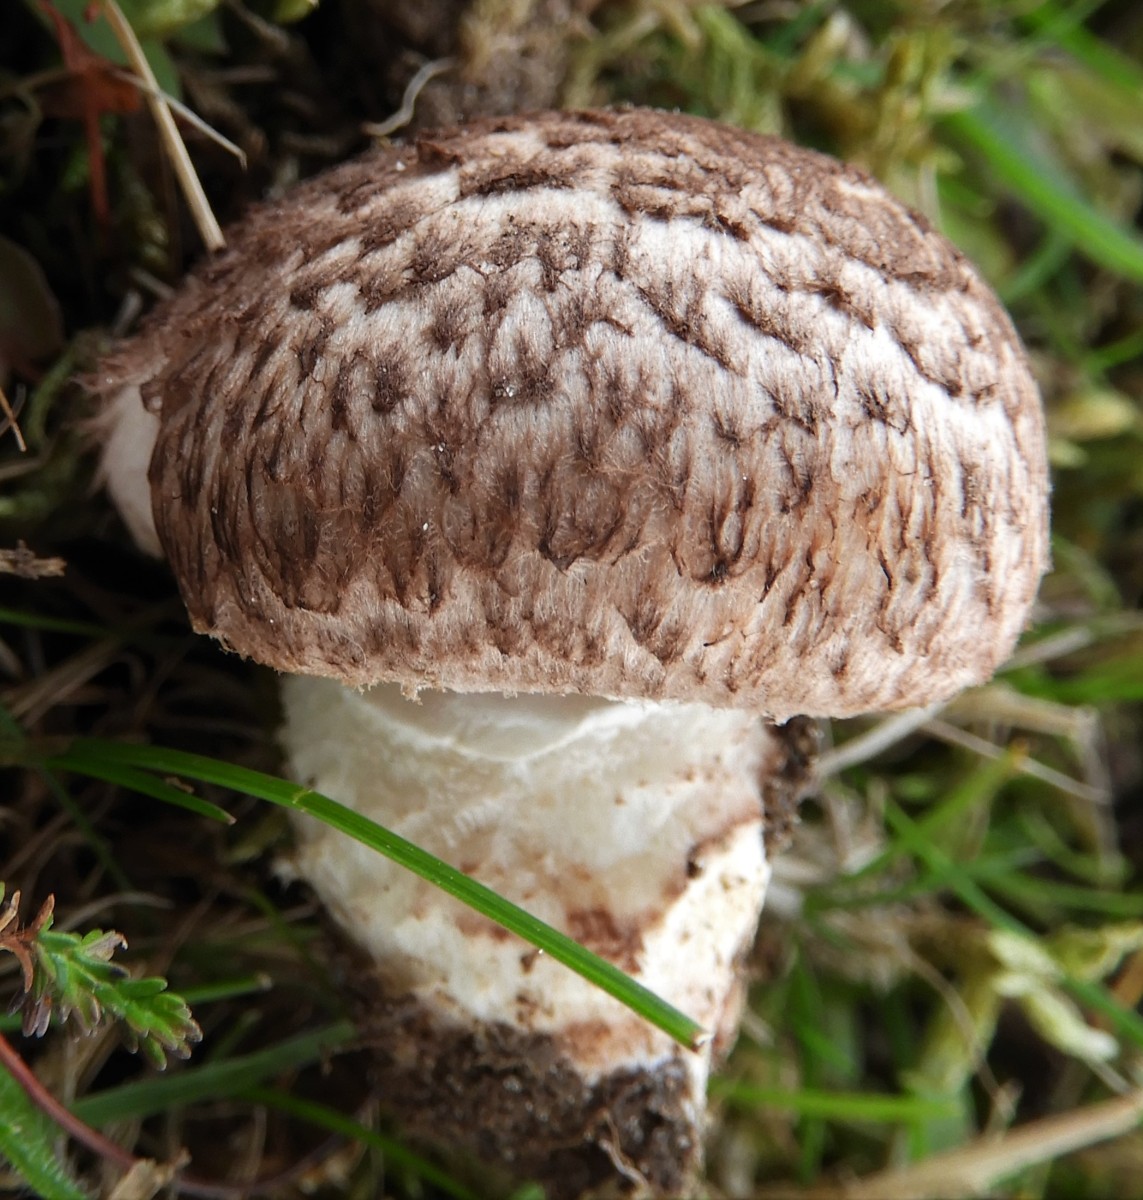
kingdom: Fungi
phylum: Basidiomycota
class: Agaricomycetes
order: Agaricales
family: Agaricaceae
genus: Agaricus
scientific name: Agaricus
